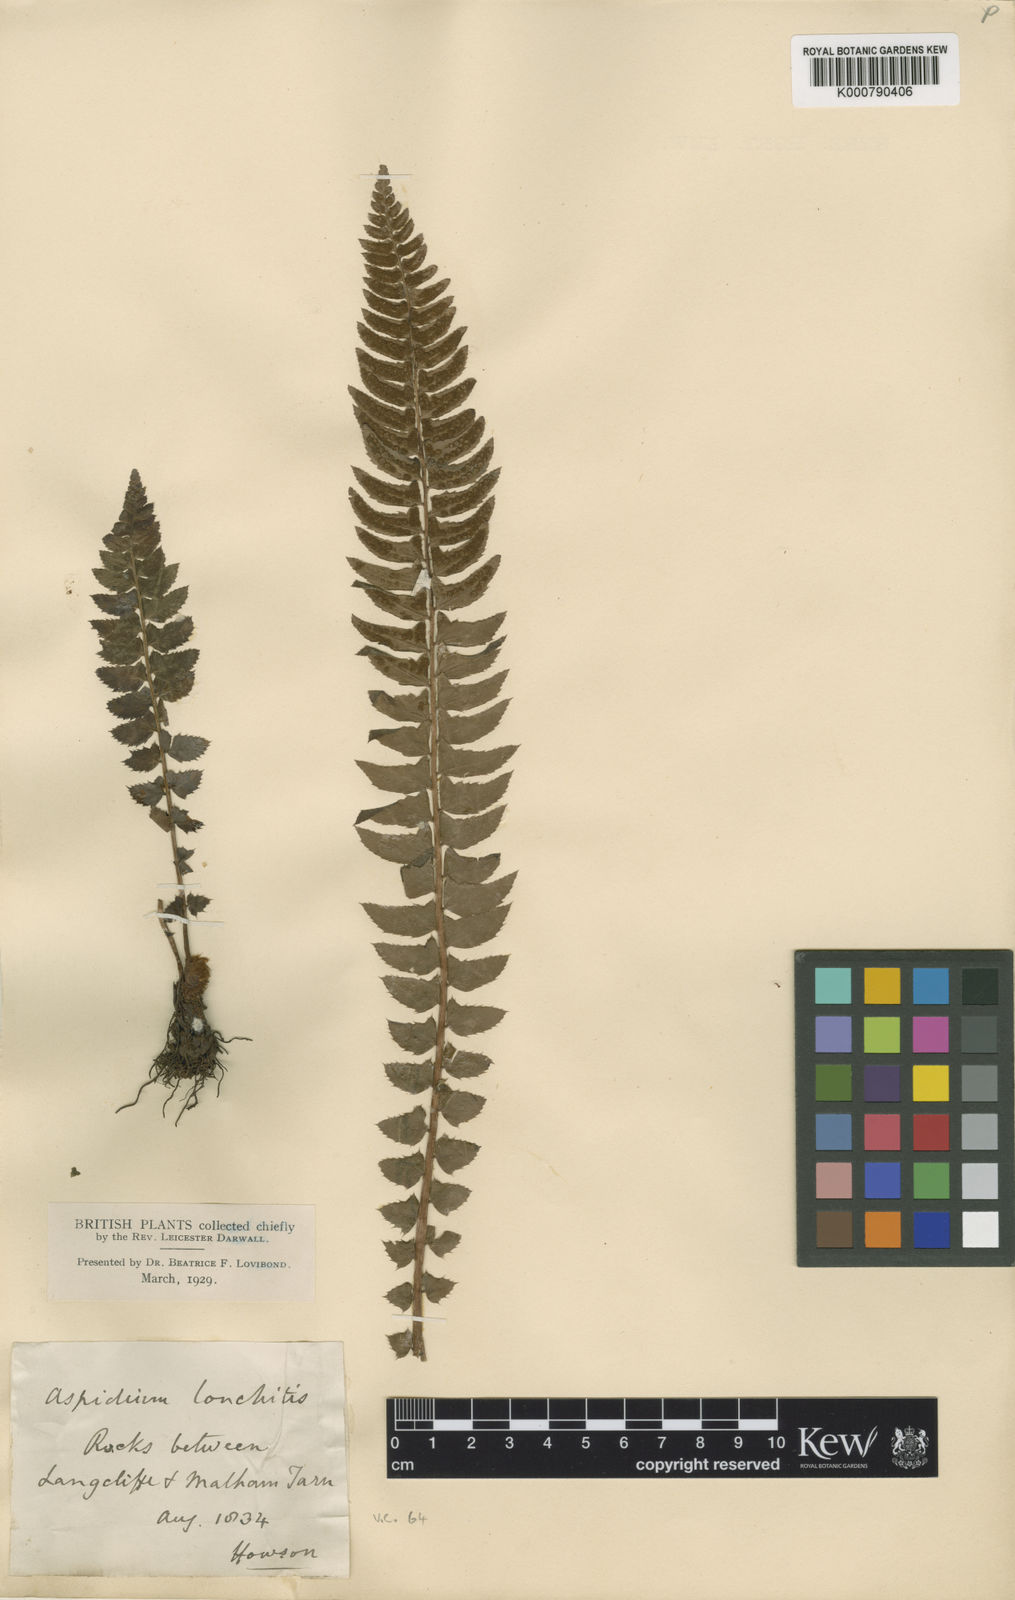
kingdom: Plantae
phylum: Tracheophyta
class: Polypodiopsida
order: Polypodiales
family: Dryopteridaceae
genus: Polystichum
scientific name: Polystichum lonchitis
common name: Holly fern
